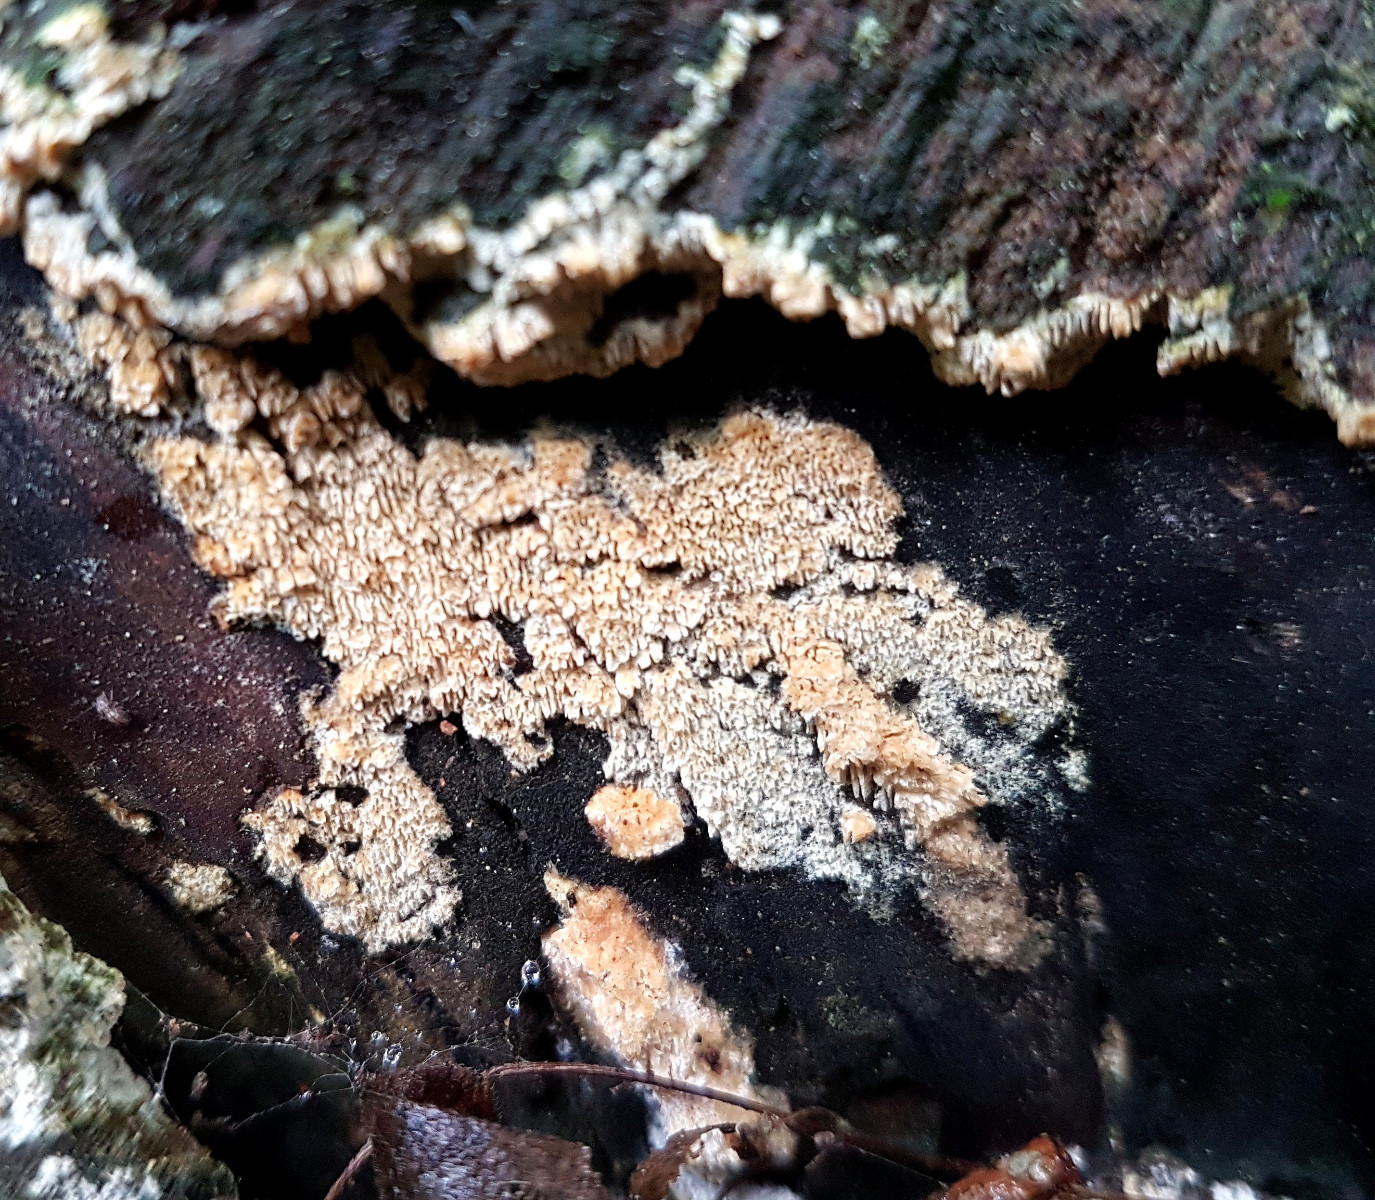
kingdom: Fungi
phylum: Basidiomycota
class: Agaricomycetes
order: Hymenochaetales
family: Schizoporaceae
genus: Xylodon
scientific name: Xylodon subtropicus
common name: labyrint-tandsvamp
